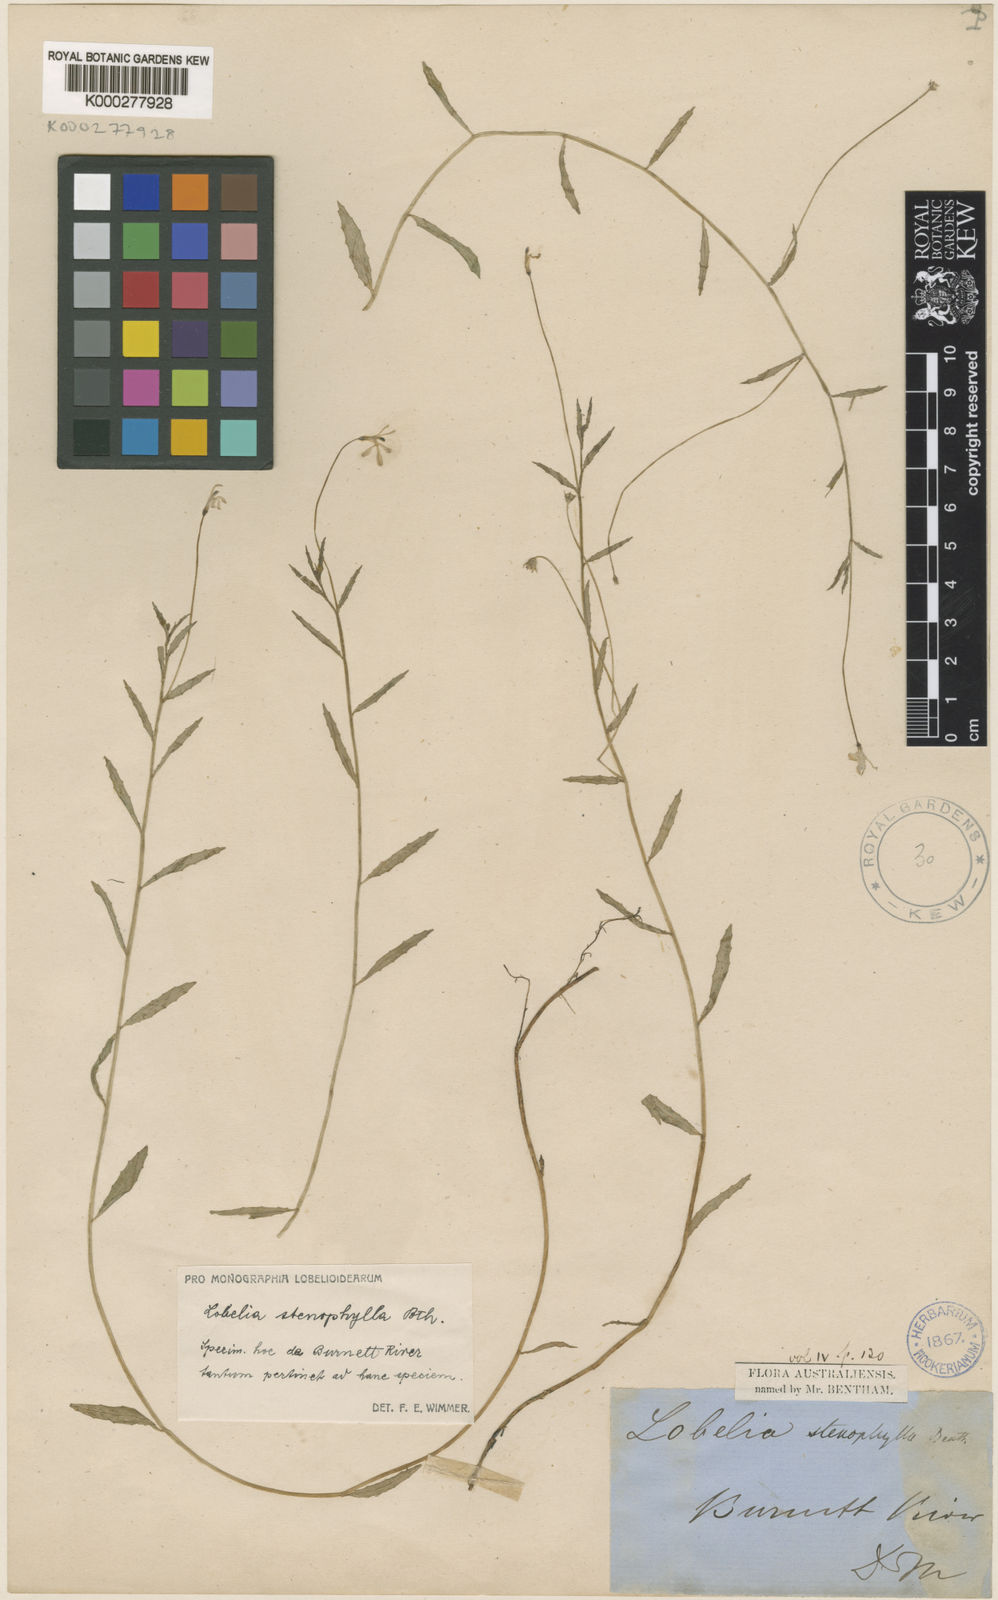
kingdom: Plantae
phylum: Tracheophyta
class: Magnoliopsida
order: Asterales
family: Campanulaceae
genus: Lobelia
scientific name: Lobelia stenophylla
